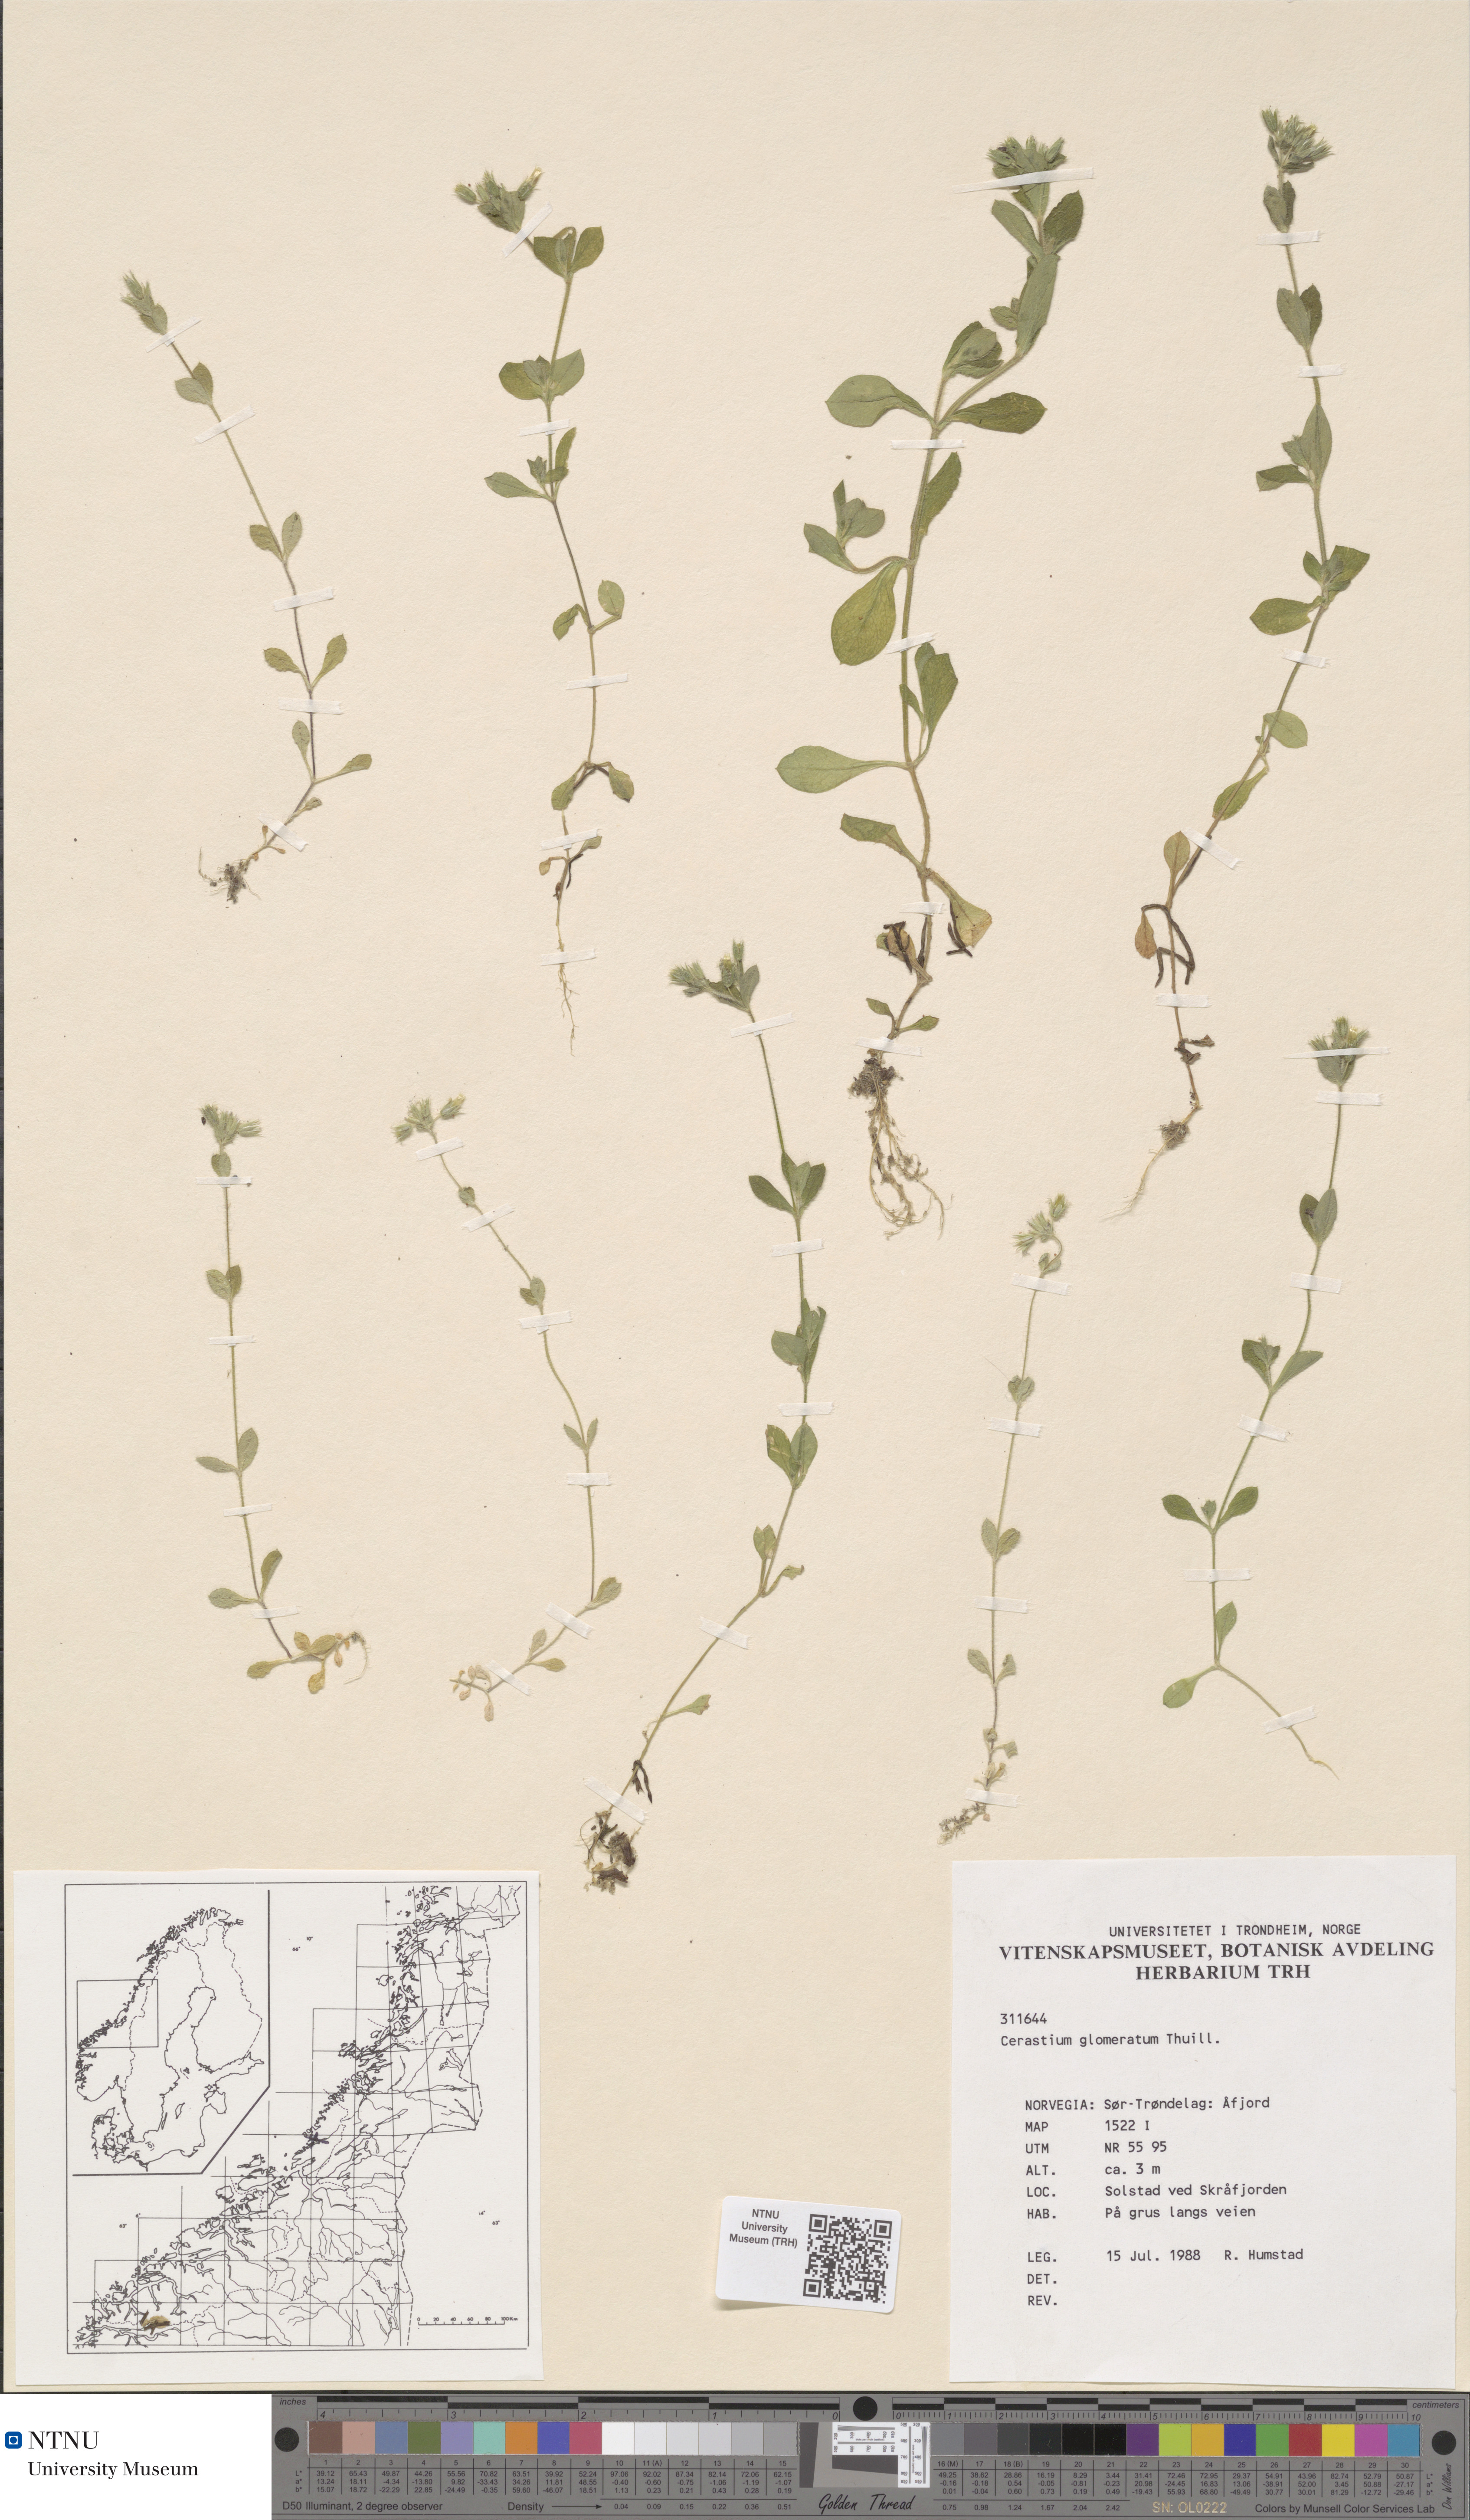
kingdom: Plantae
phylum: Tracheophyta
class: Magnoliopsida
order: Caryophyllales
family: Caryophyllaceae
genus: Cerastium
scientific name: Cerastium glomeratum
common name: Sticky chickweed
